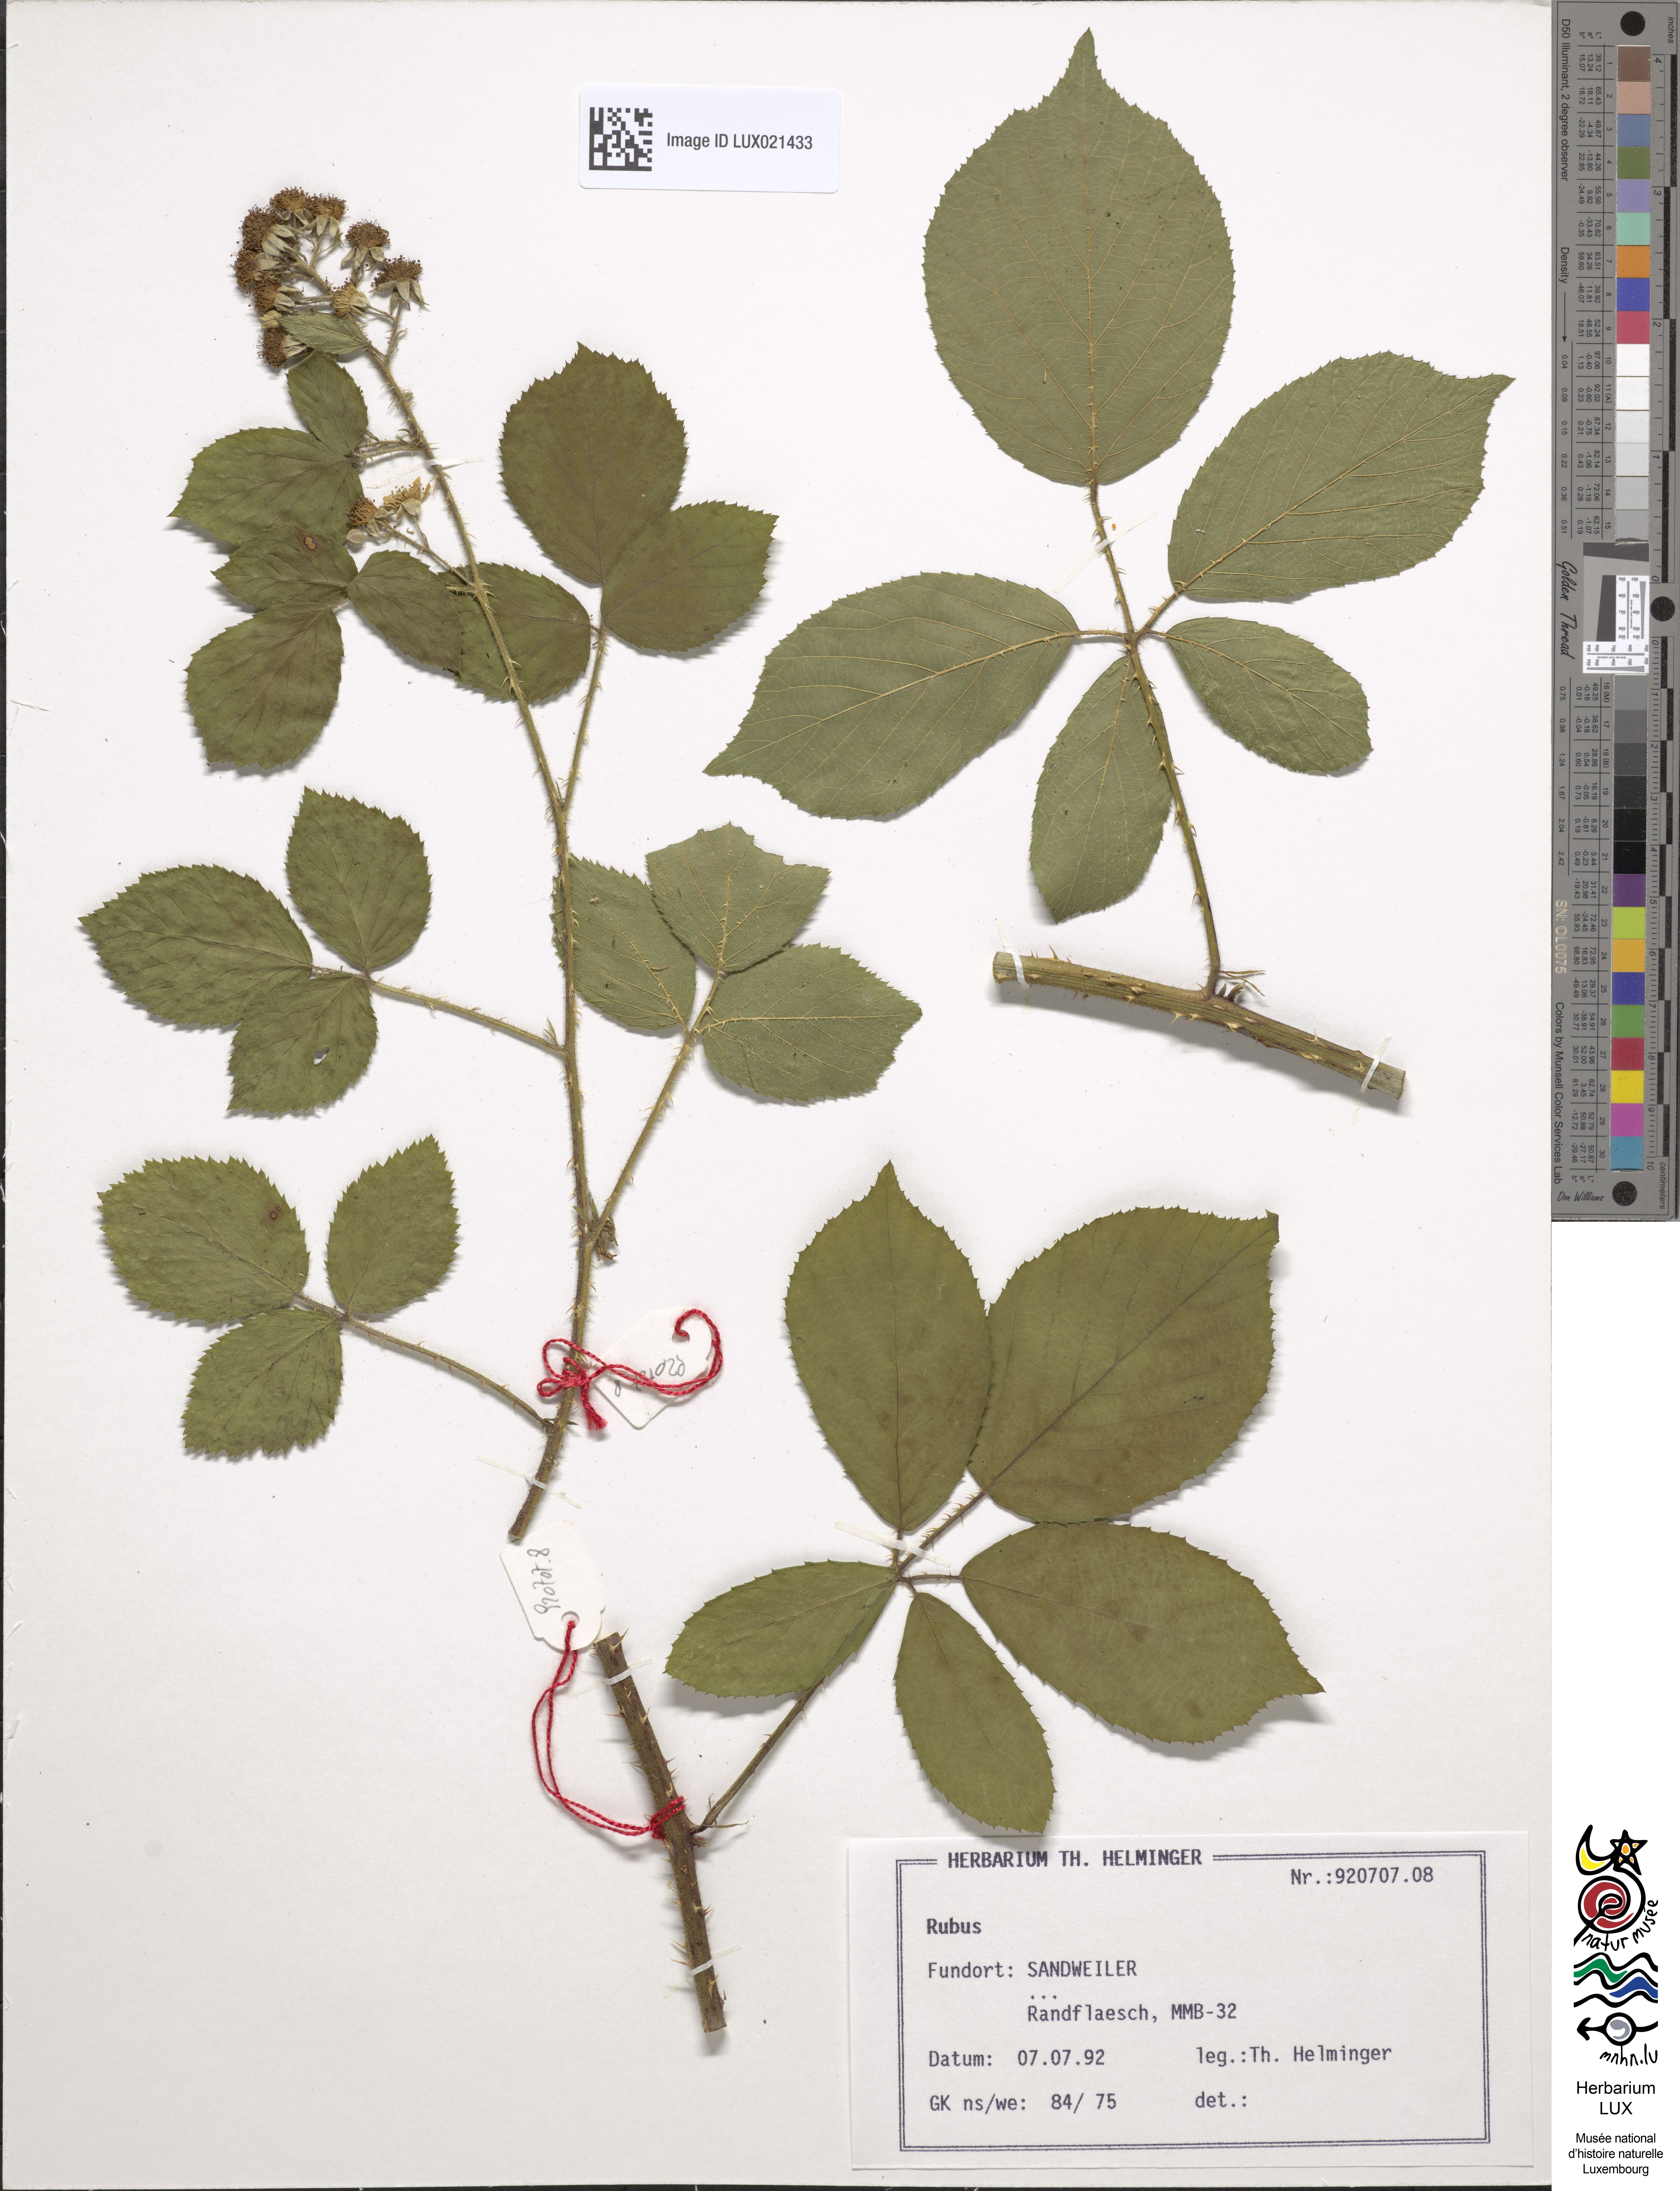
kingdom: Plantae
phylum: Tracheophyta
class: Magnoliopsida
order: Rosales
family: Rosaceae
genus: Rubus
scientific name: Rubus
